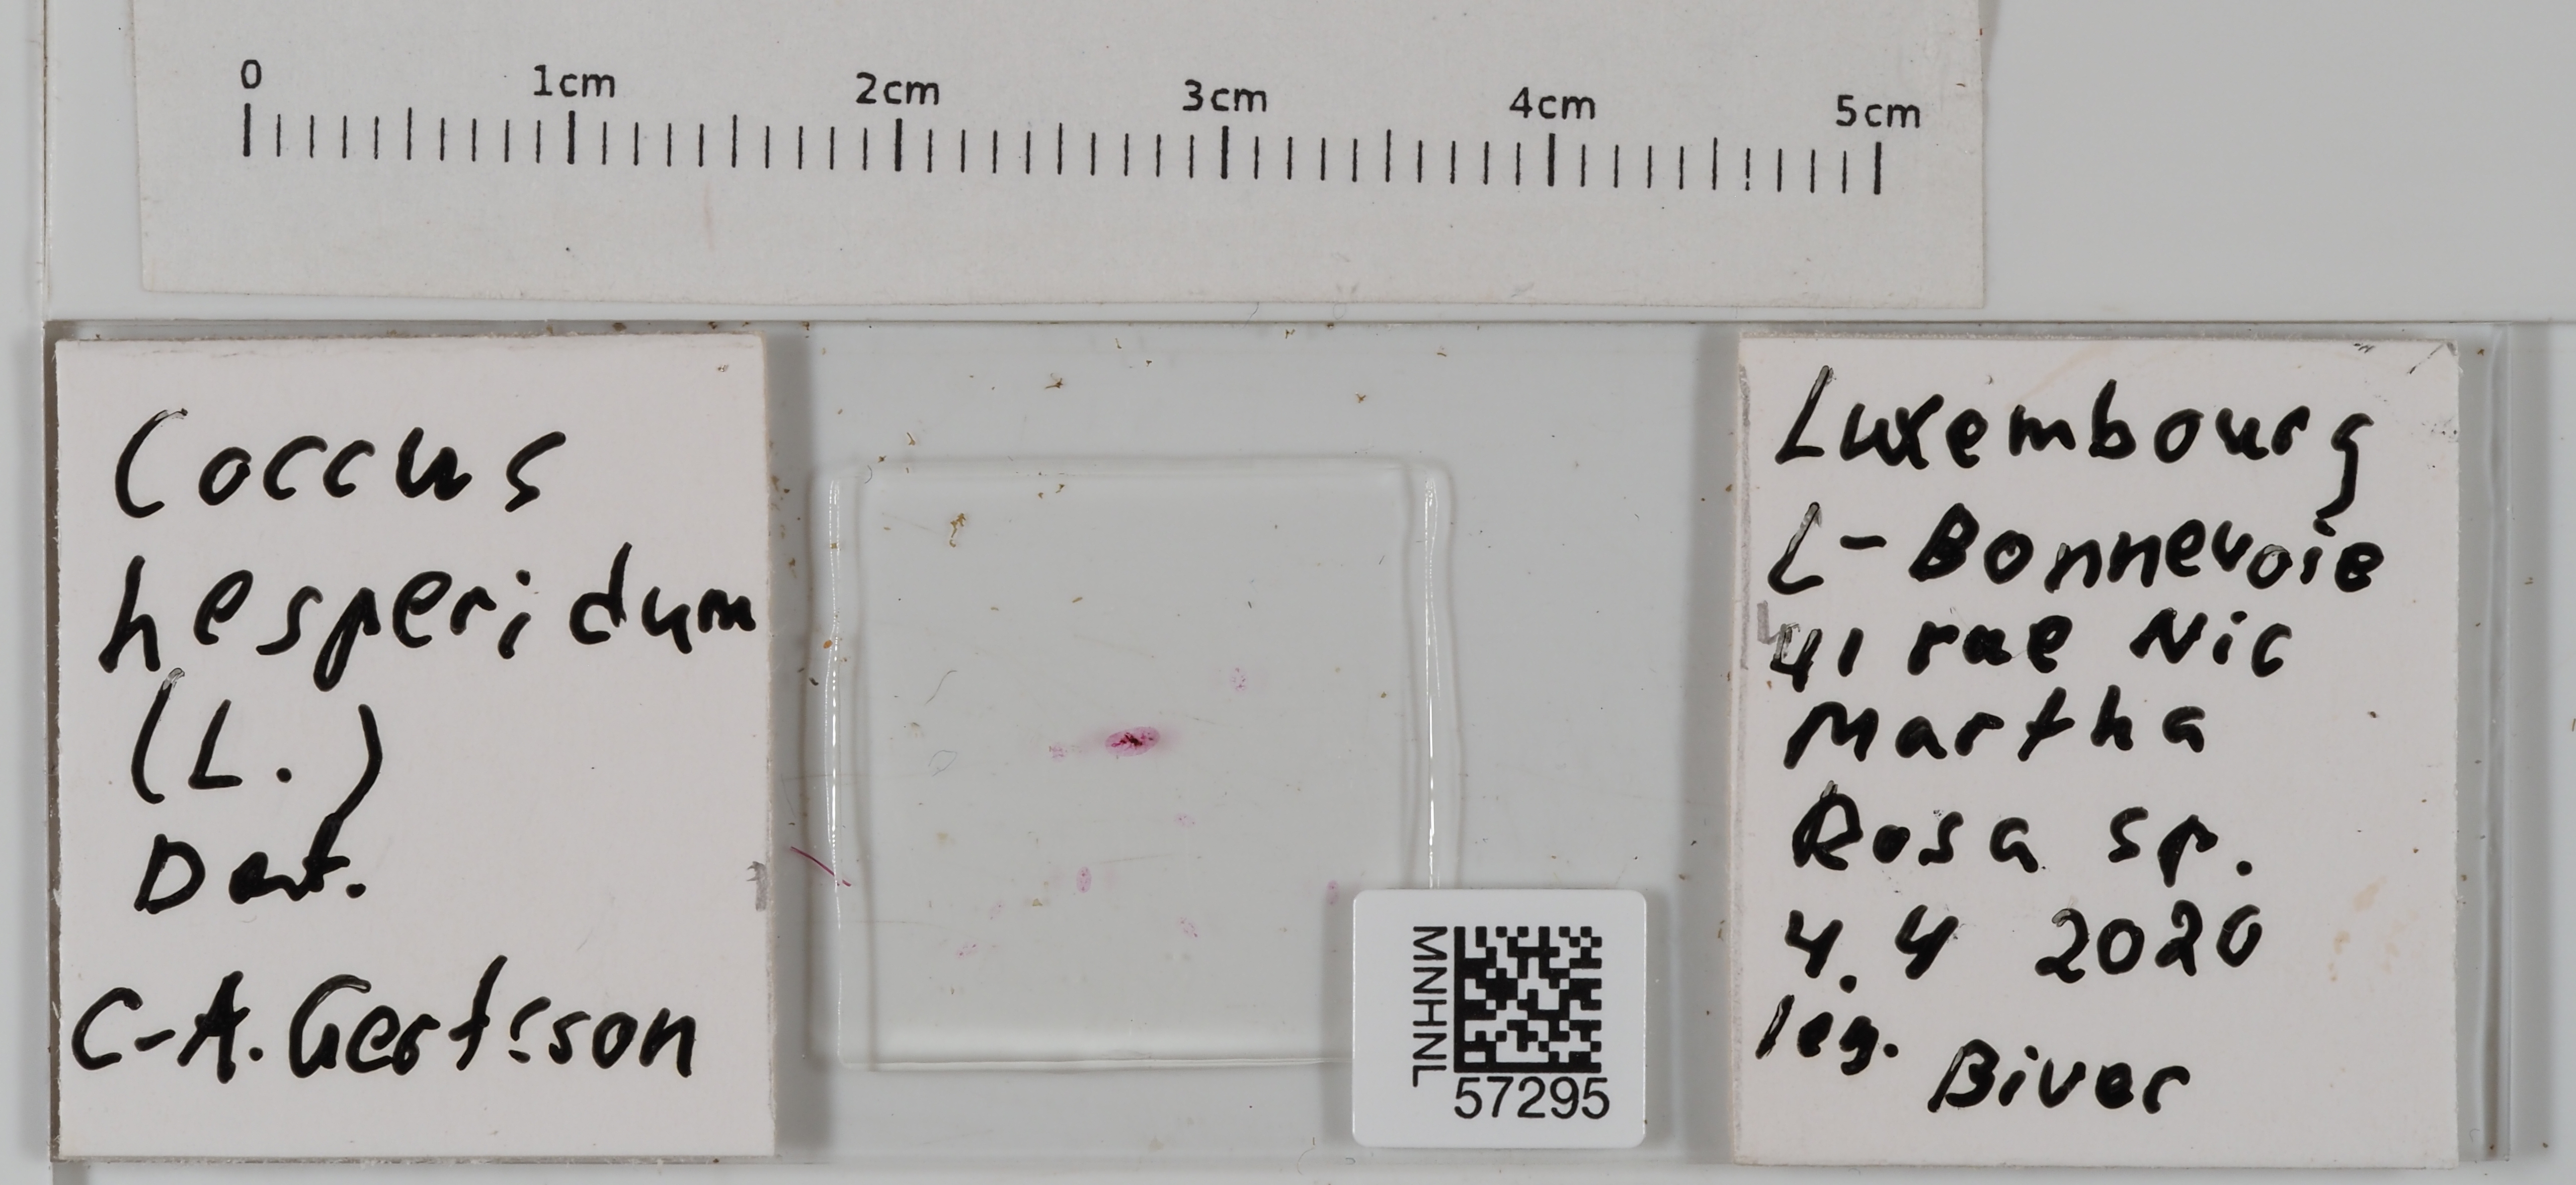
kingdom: Animalia
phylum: Arthropoda
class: Insecta
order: Hemiptera
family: Coccidae
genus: Coccus
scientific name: Coccus hesperidum
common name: Soft brown scale
